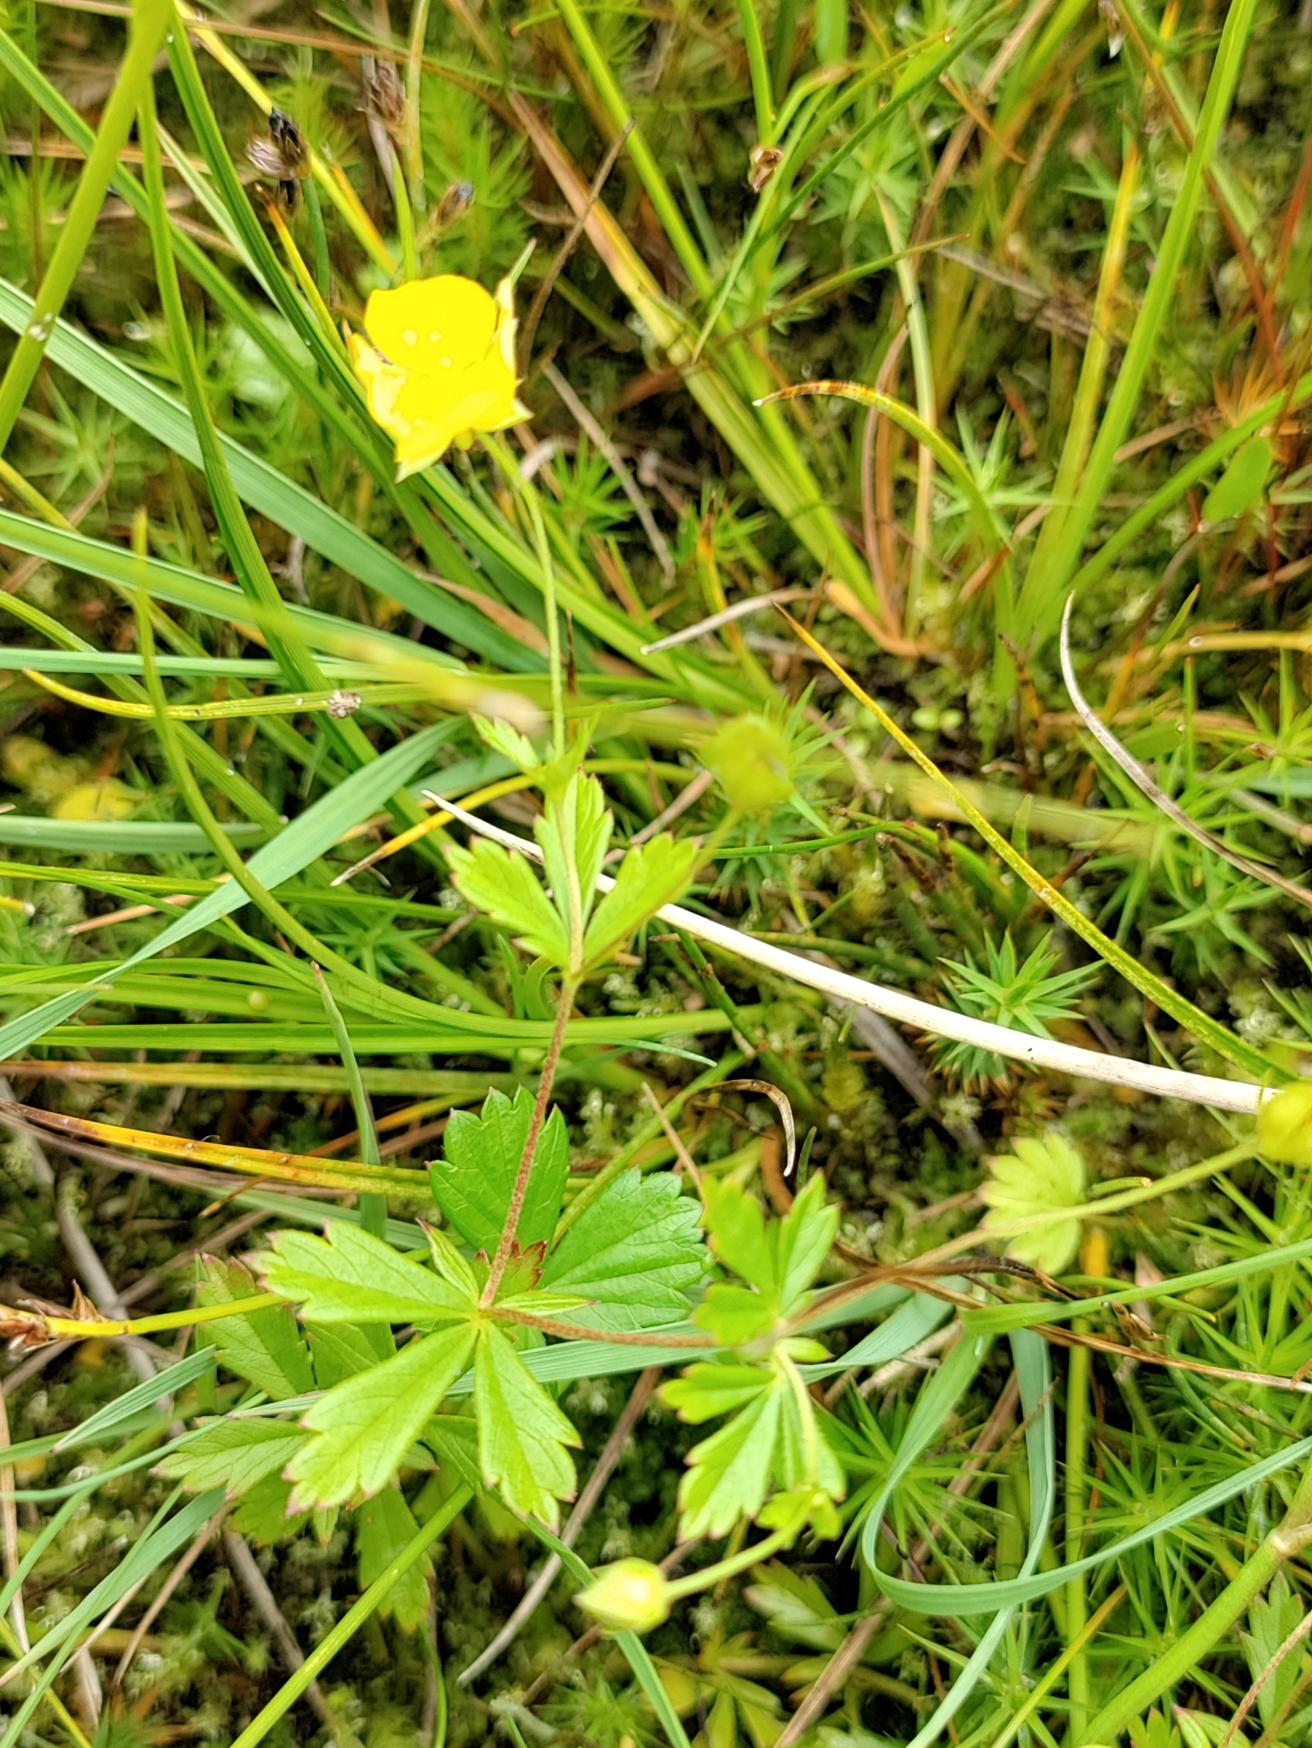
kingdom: Plantae
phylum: Tracheophyta
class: Magnoliopsida
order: Rosales
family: Rosaceae
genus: Potentilla
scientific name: Potentilla erecta
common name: Tormentil
